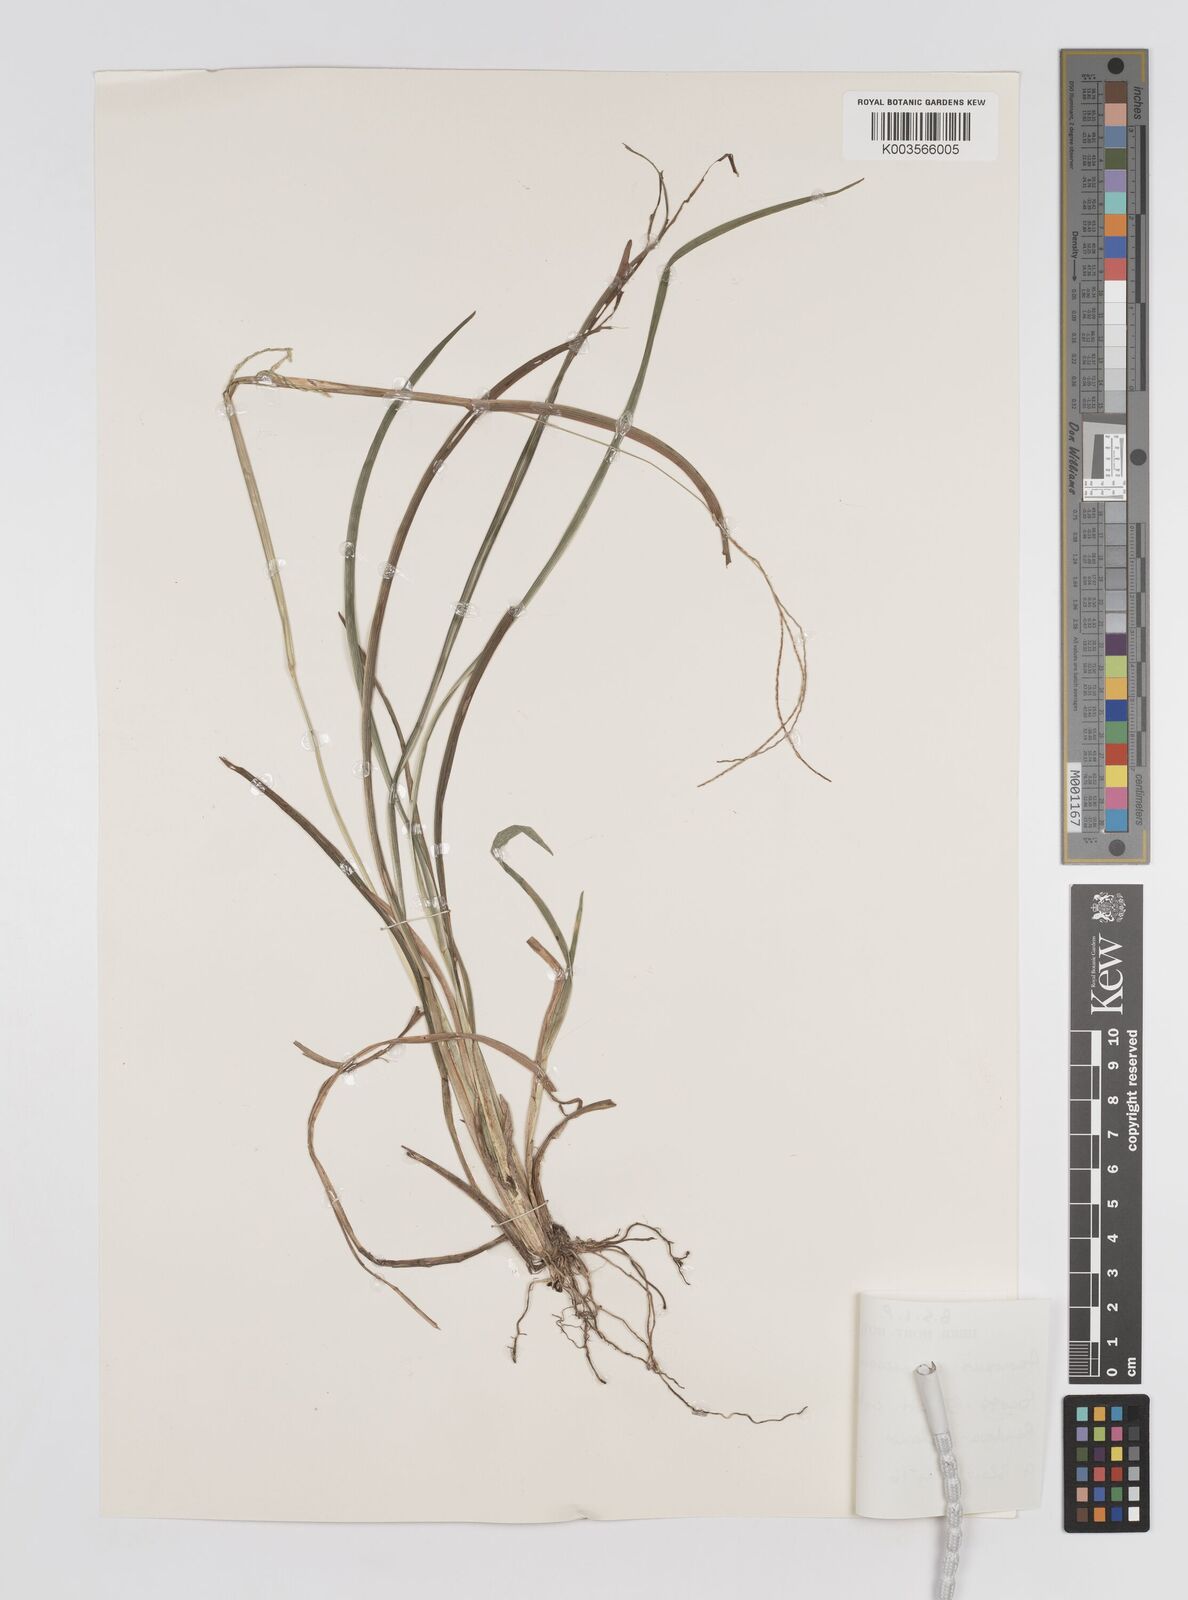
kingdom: Plantae
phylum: Tracheophyta
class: Liliopsida
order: Poales
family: Poaceae
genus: Axonopus
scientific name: Axonopus compressus
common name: American carpet grass
